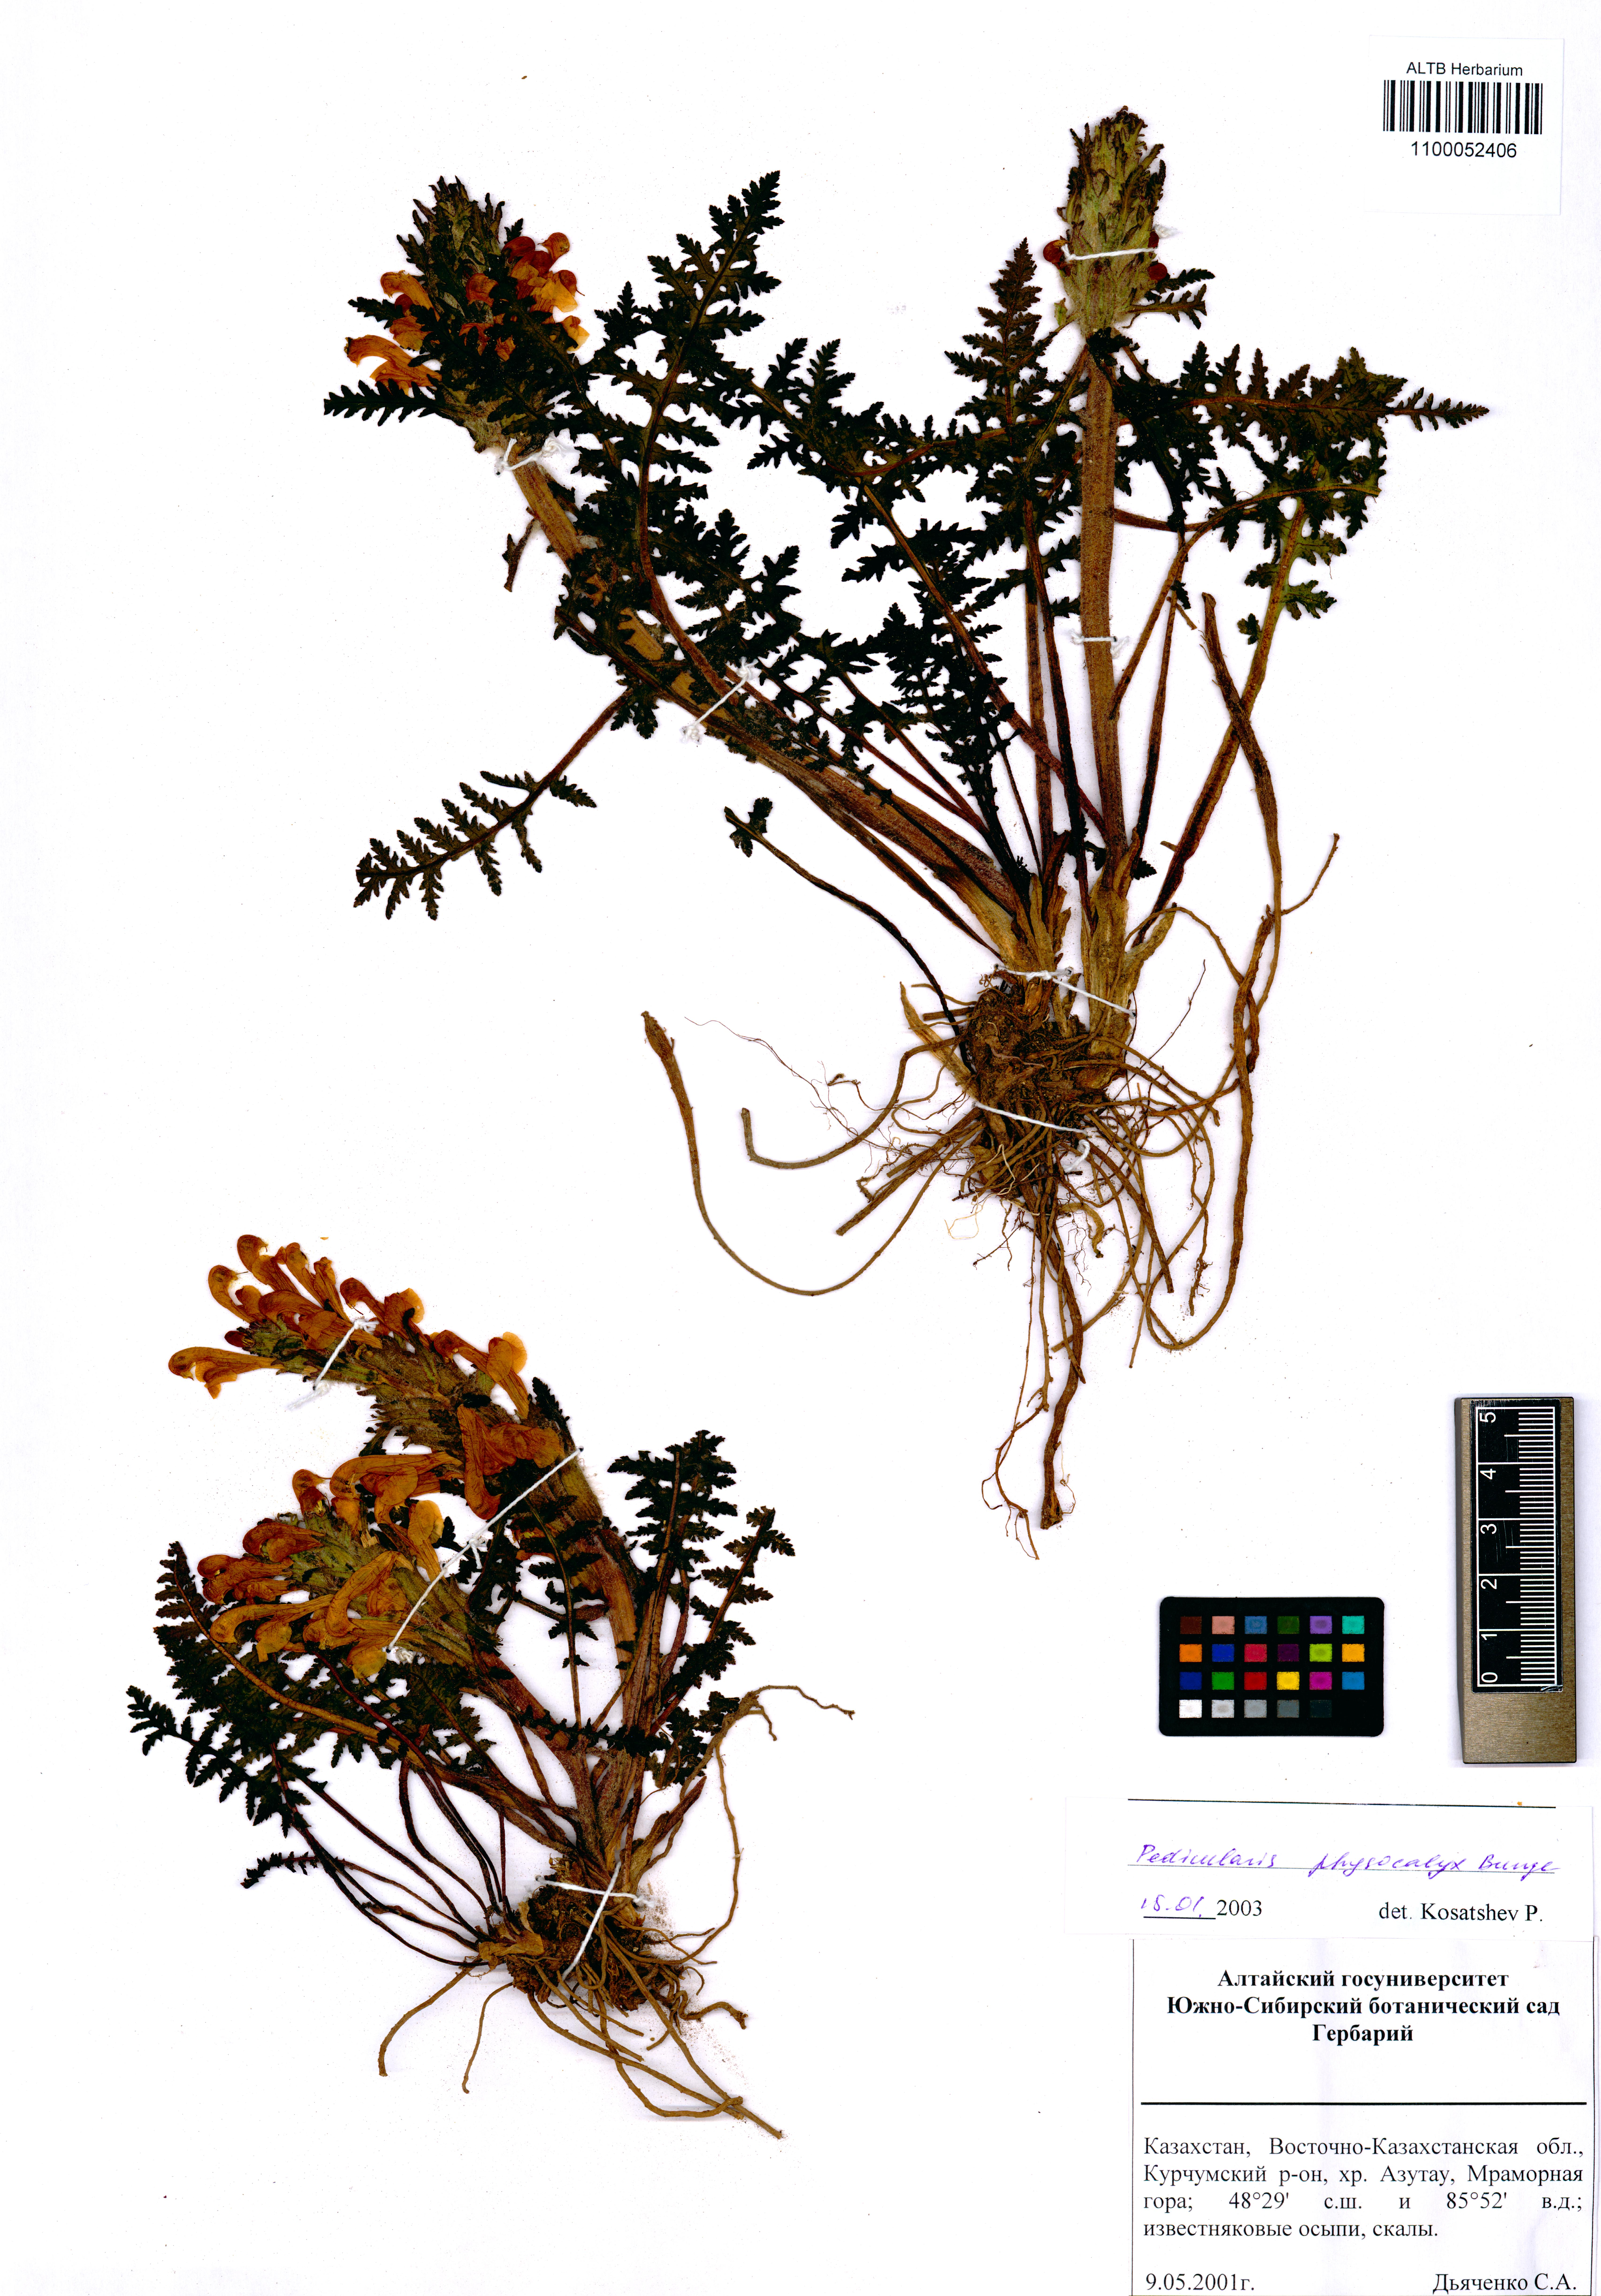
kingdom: Plantae
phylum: Tracheophyta
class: Magnoliopsida
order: Lamiales
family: Orobanchaceae
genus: Pedicularis
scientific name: Pedicularis physocalyx
